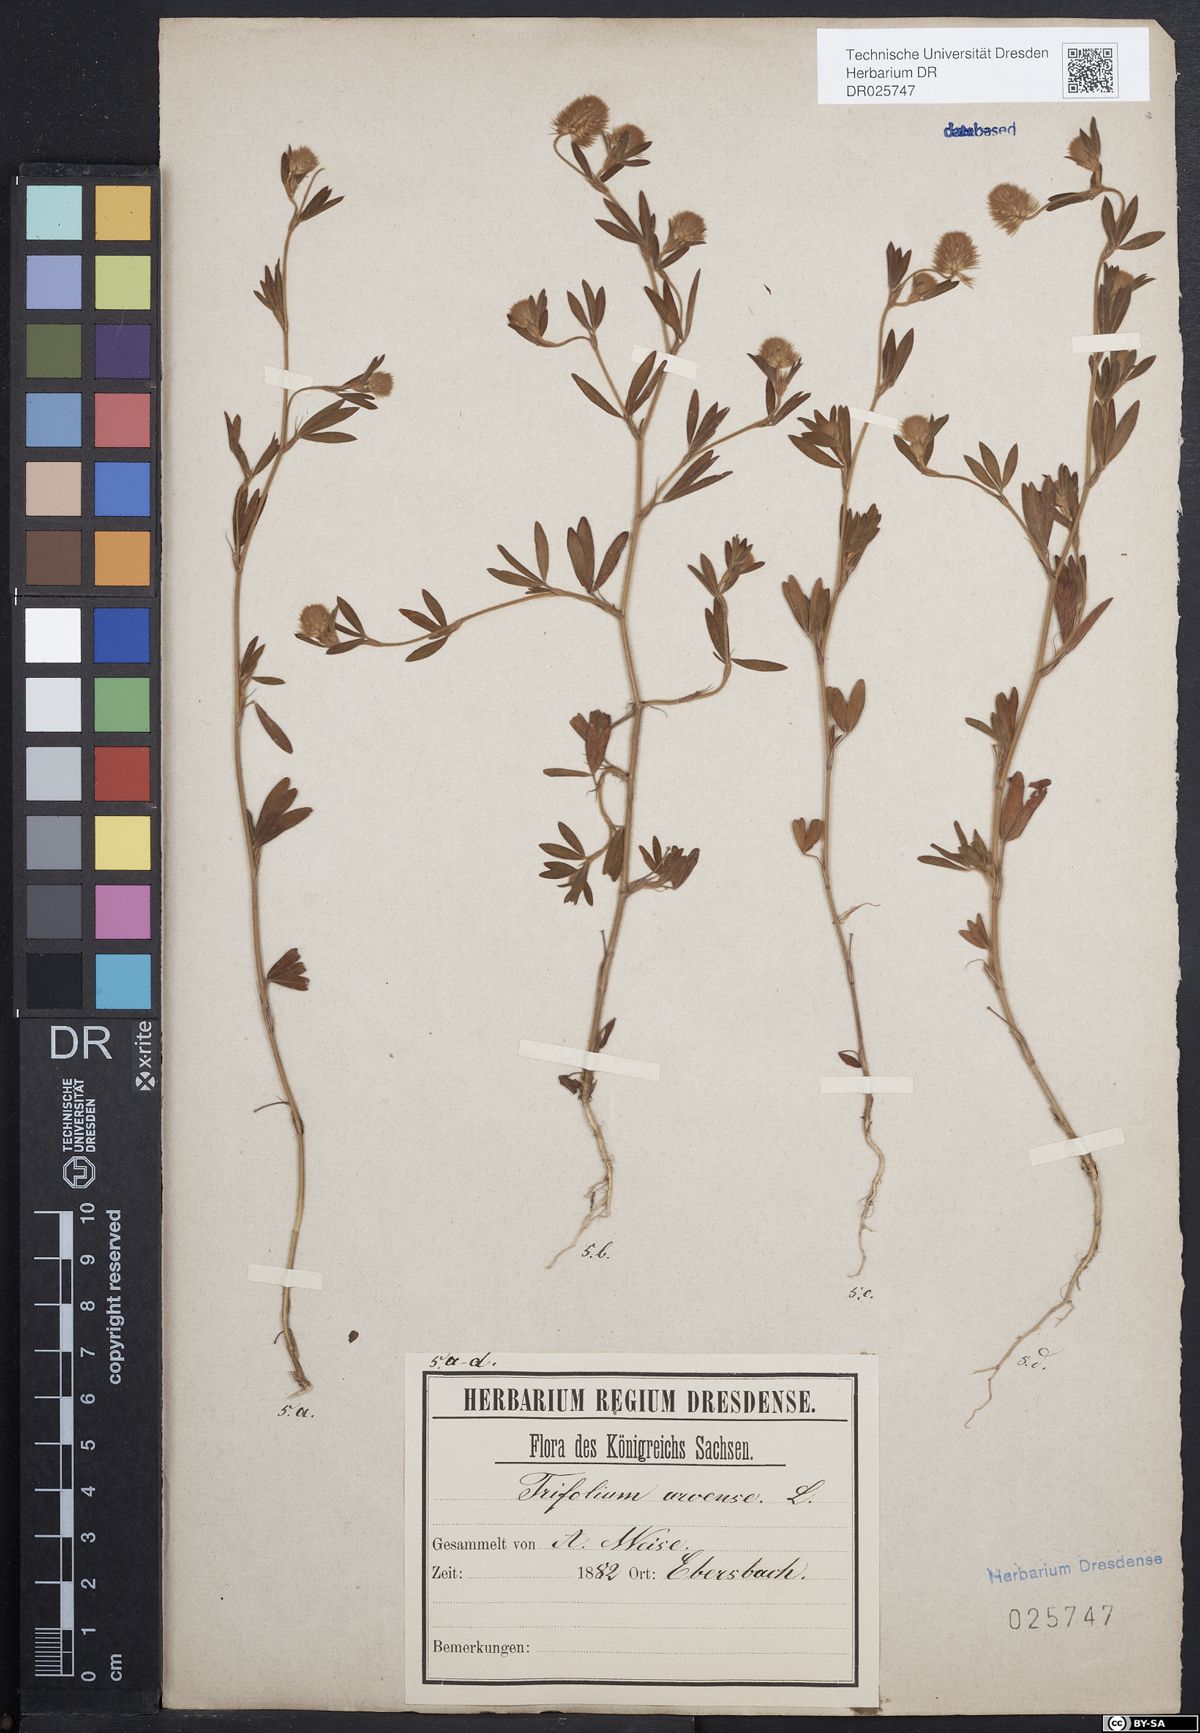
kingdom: Plantae
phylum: Tracheophyta
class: Magnoliopsida
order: Fabales
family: Fabaceae
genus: Trifolium
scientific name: Trifolium arvense
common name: Hare's-foot clover
